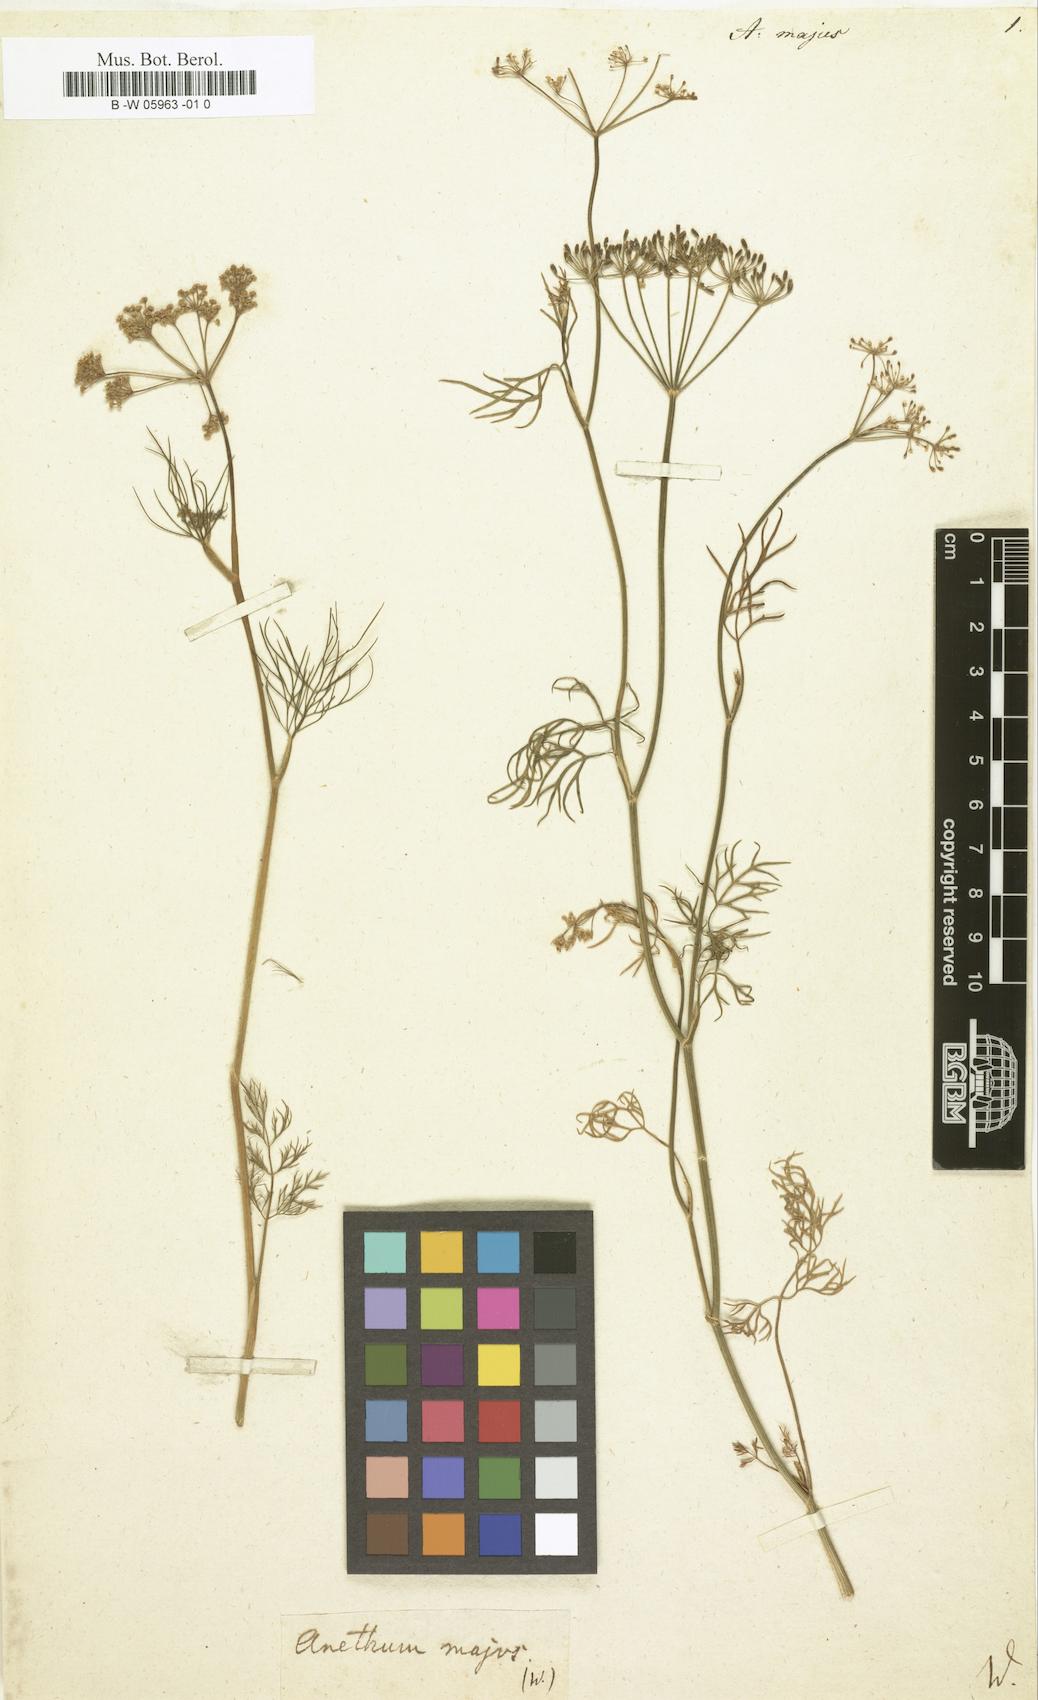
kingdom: Plantae
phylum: Tracheophyta
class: Magnoliopsida
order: Apiales
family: Apiaceae
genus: Anethum
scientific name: Anethum
